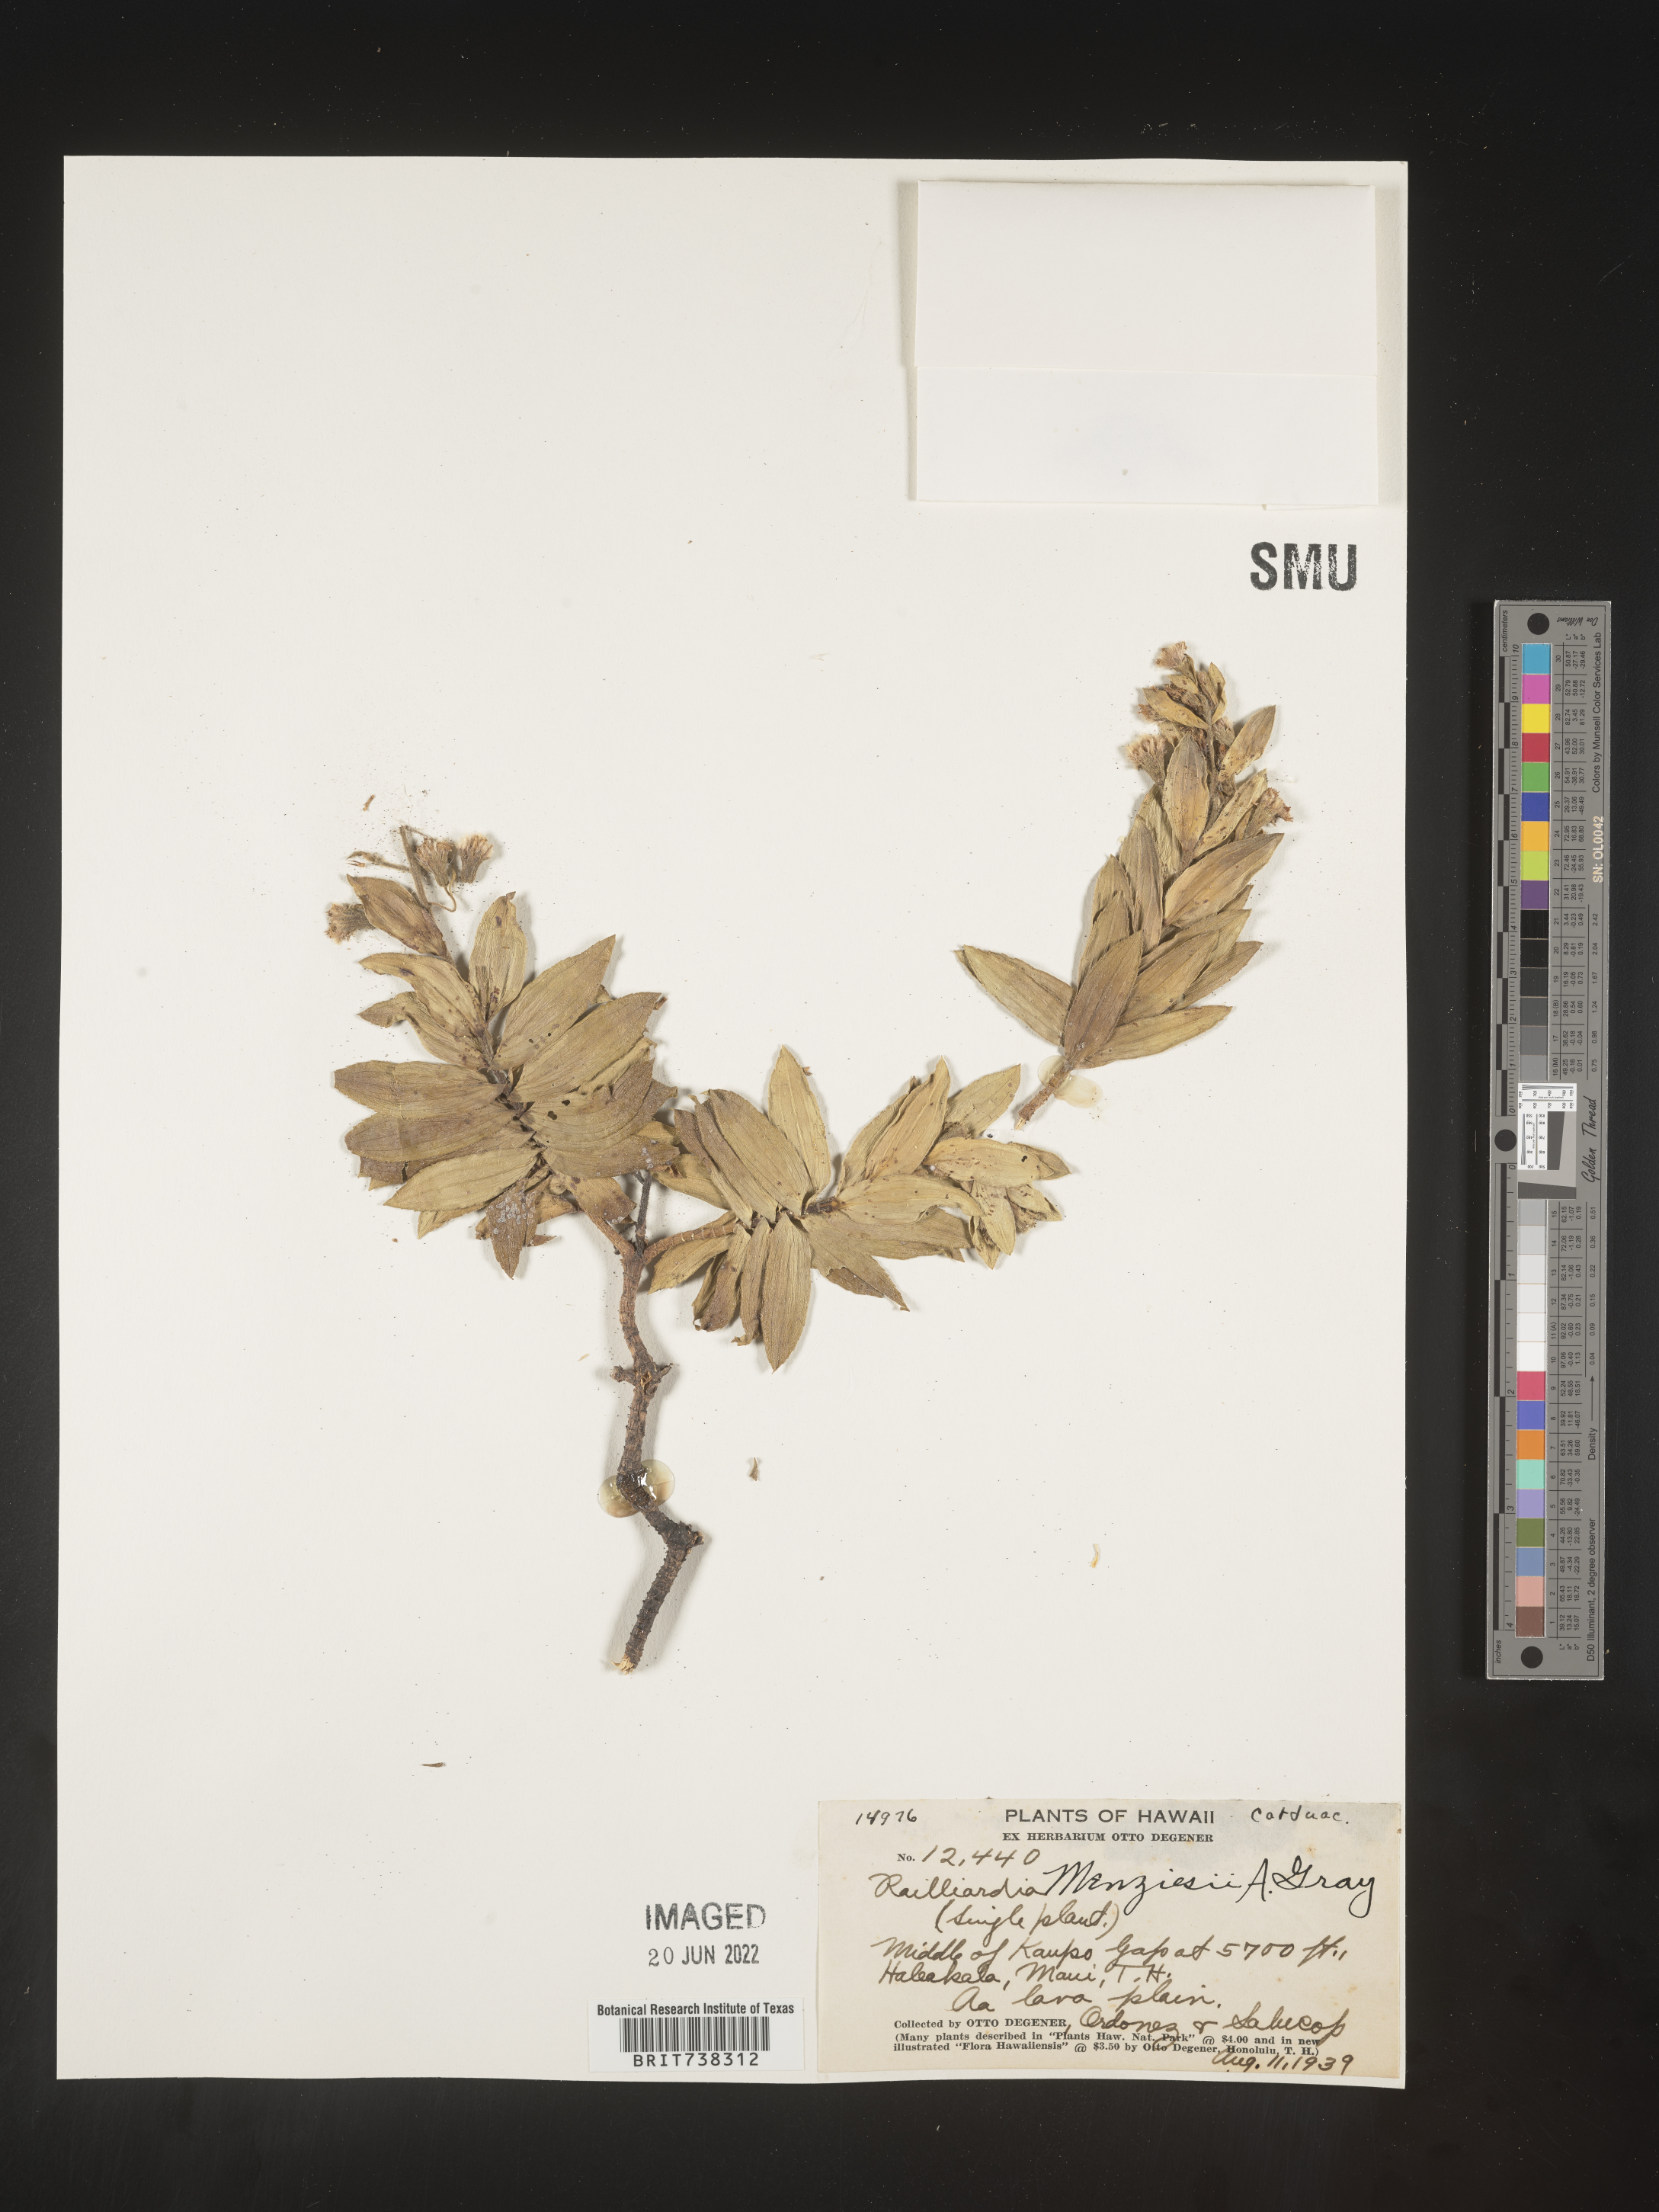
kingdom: Plantae
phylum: Tracheophyta
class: Magnoliopsida
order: Asterales
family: Asteraceae
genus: Dubautia
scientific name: Dubautia
